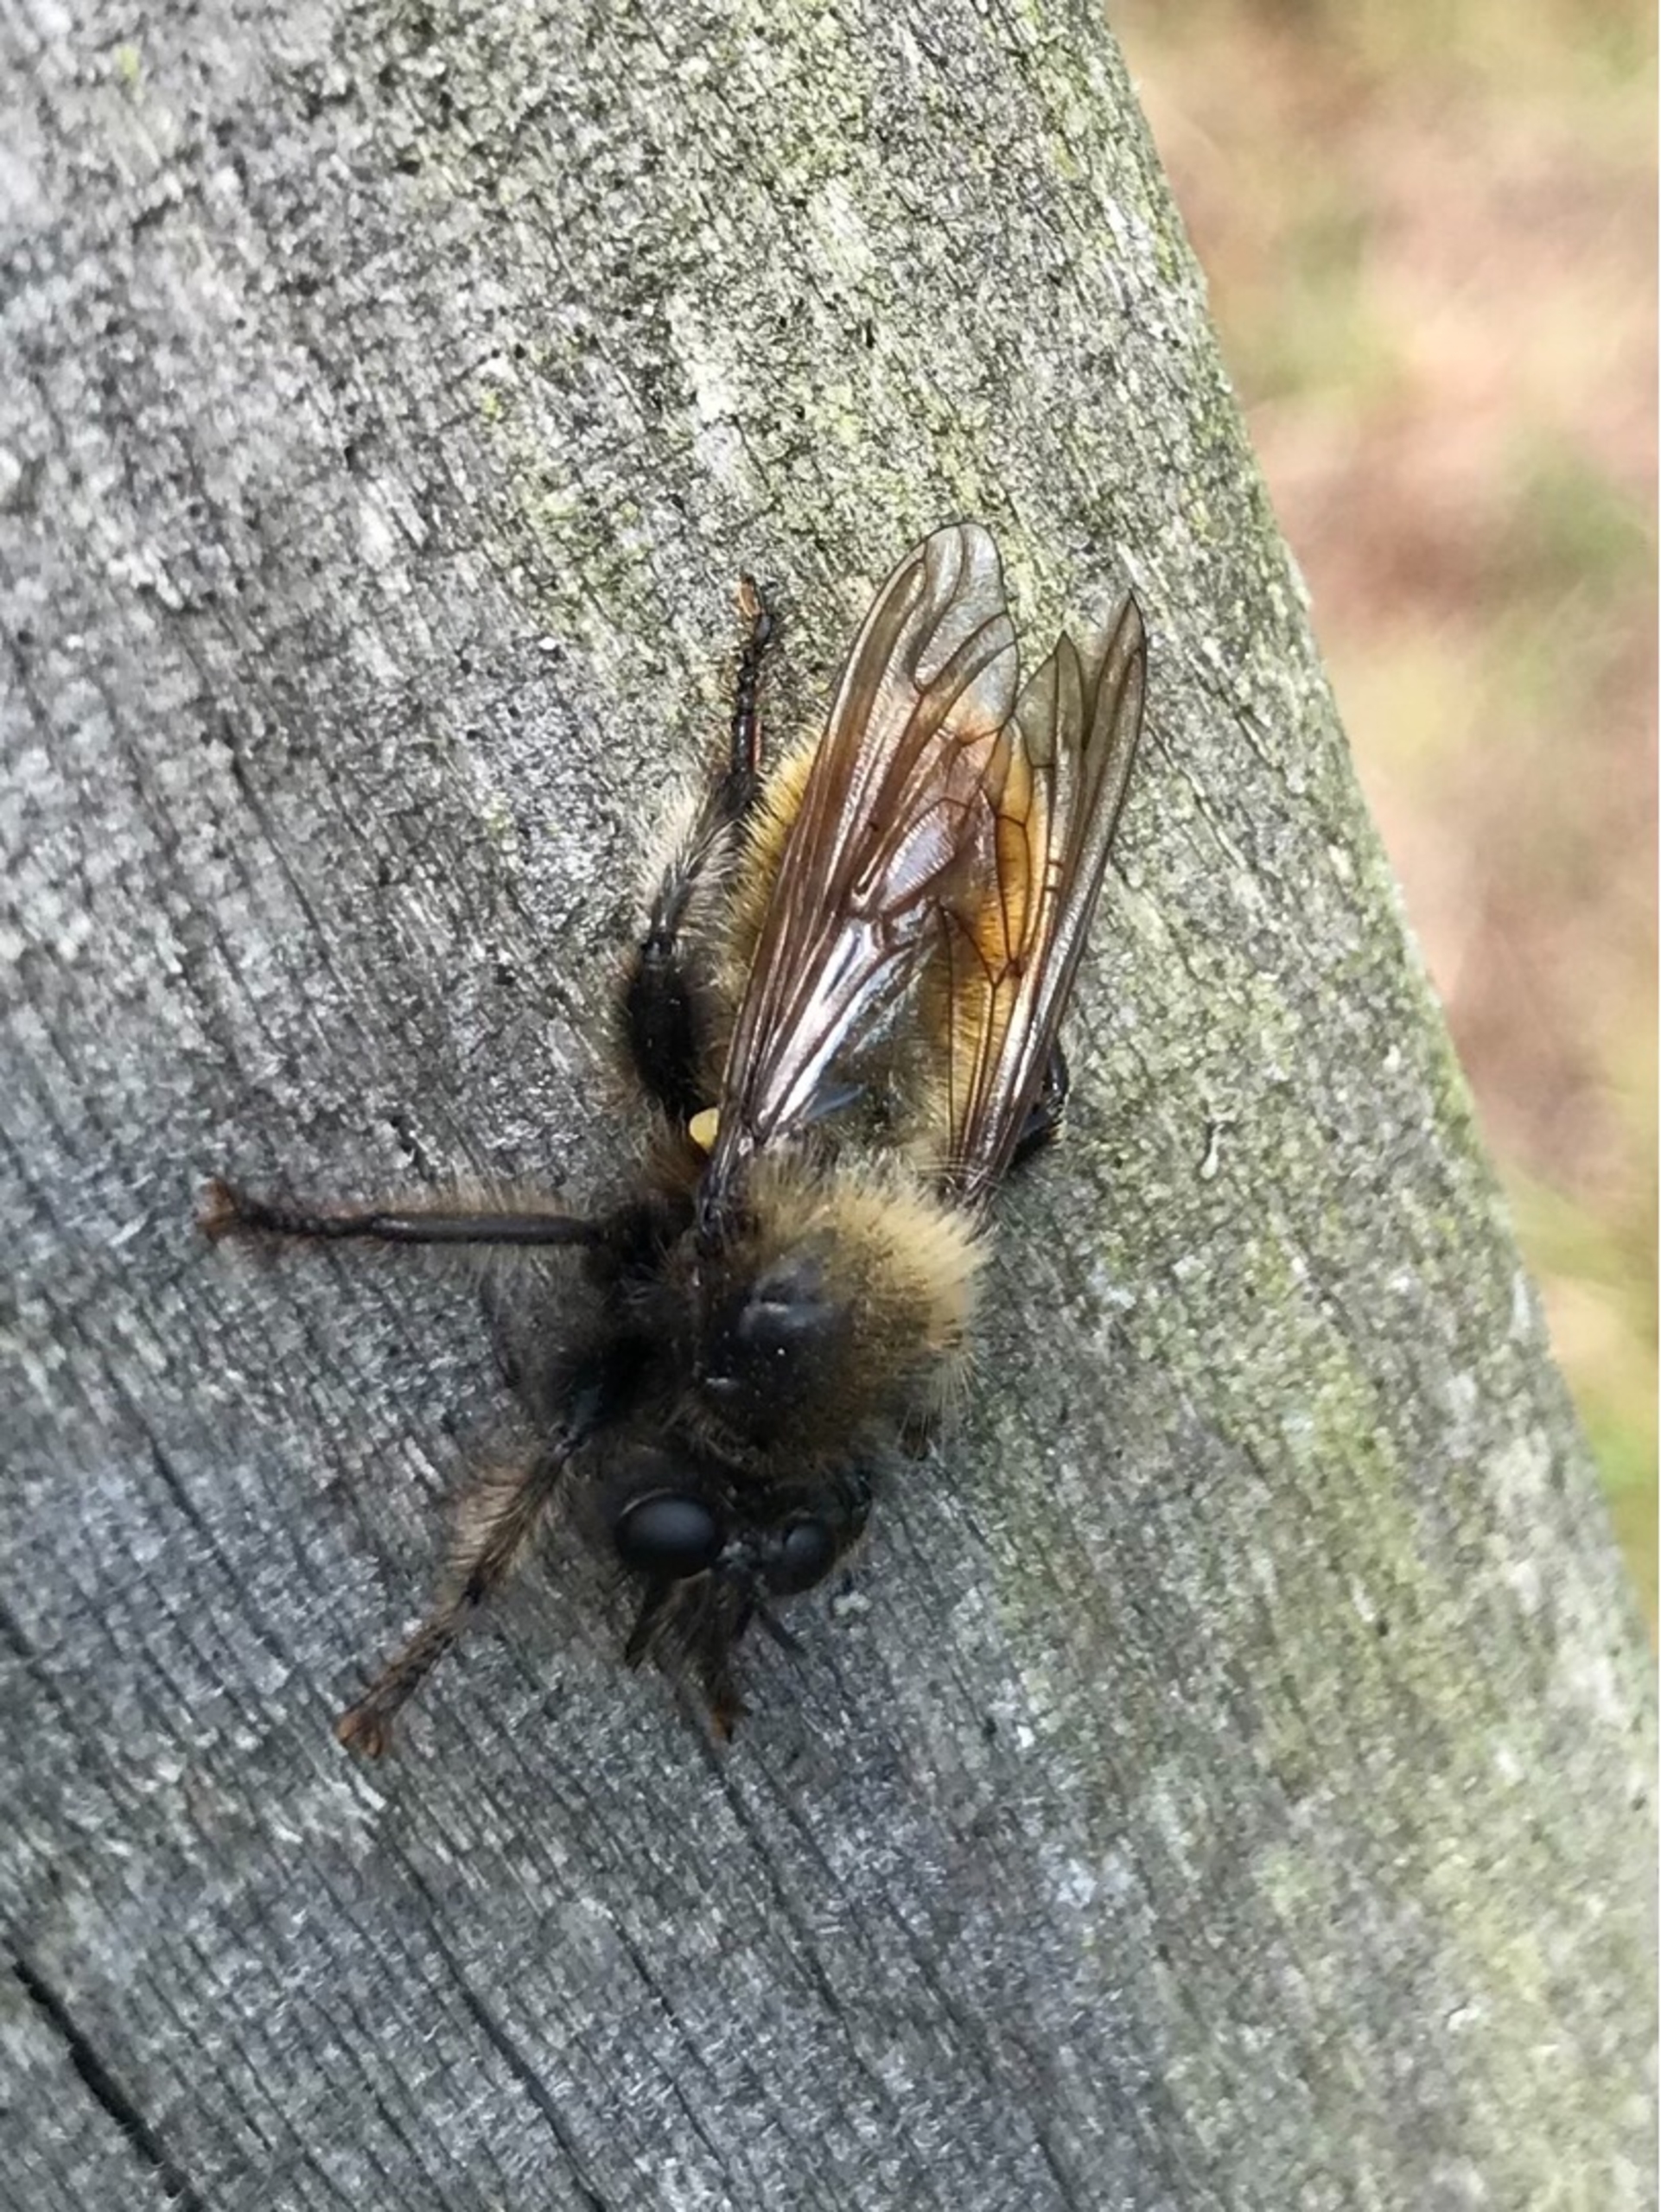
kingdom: Animalia
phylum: Arthropoda
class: Insecta
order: Diptera
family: Asilidae
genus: Laphria
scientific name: Laphria flava
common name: Gul vedrovflue
